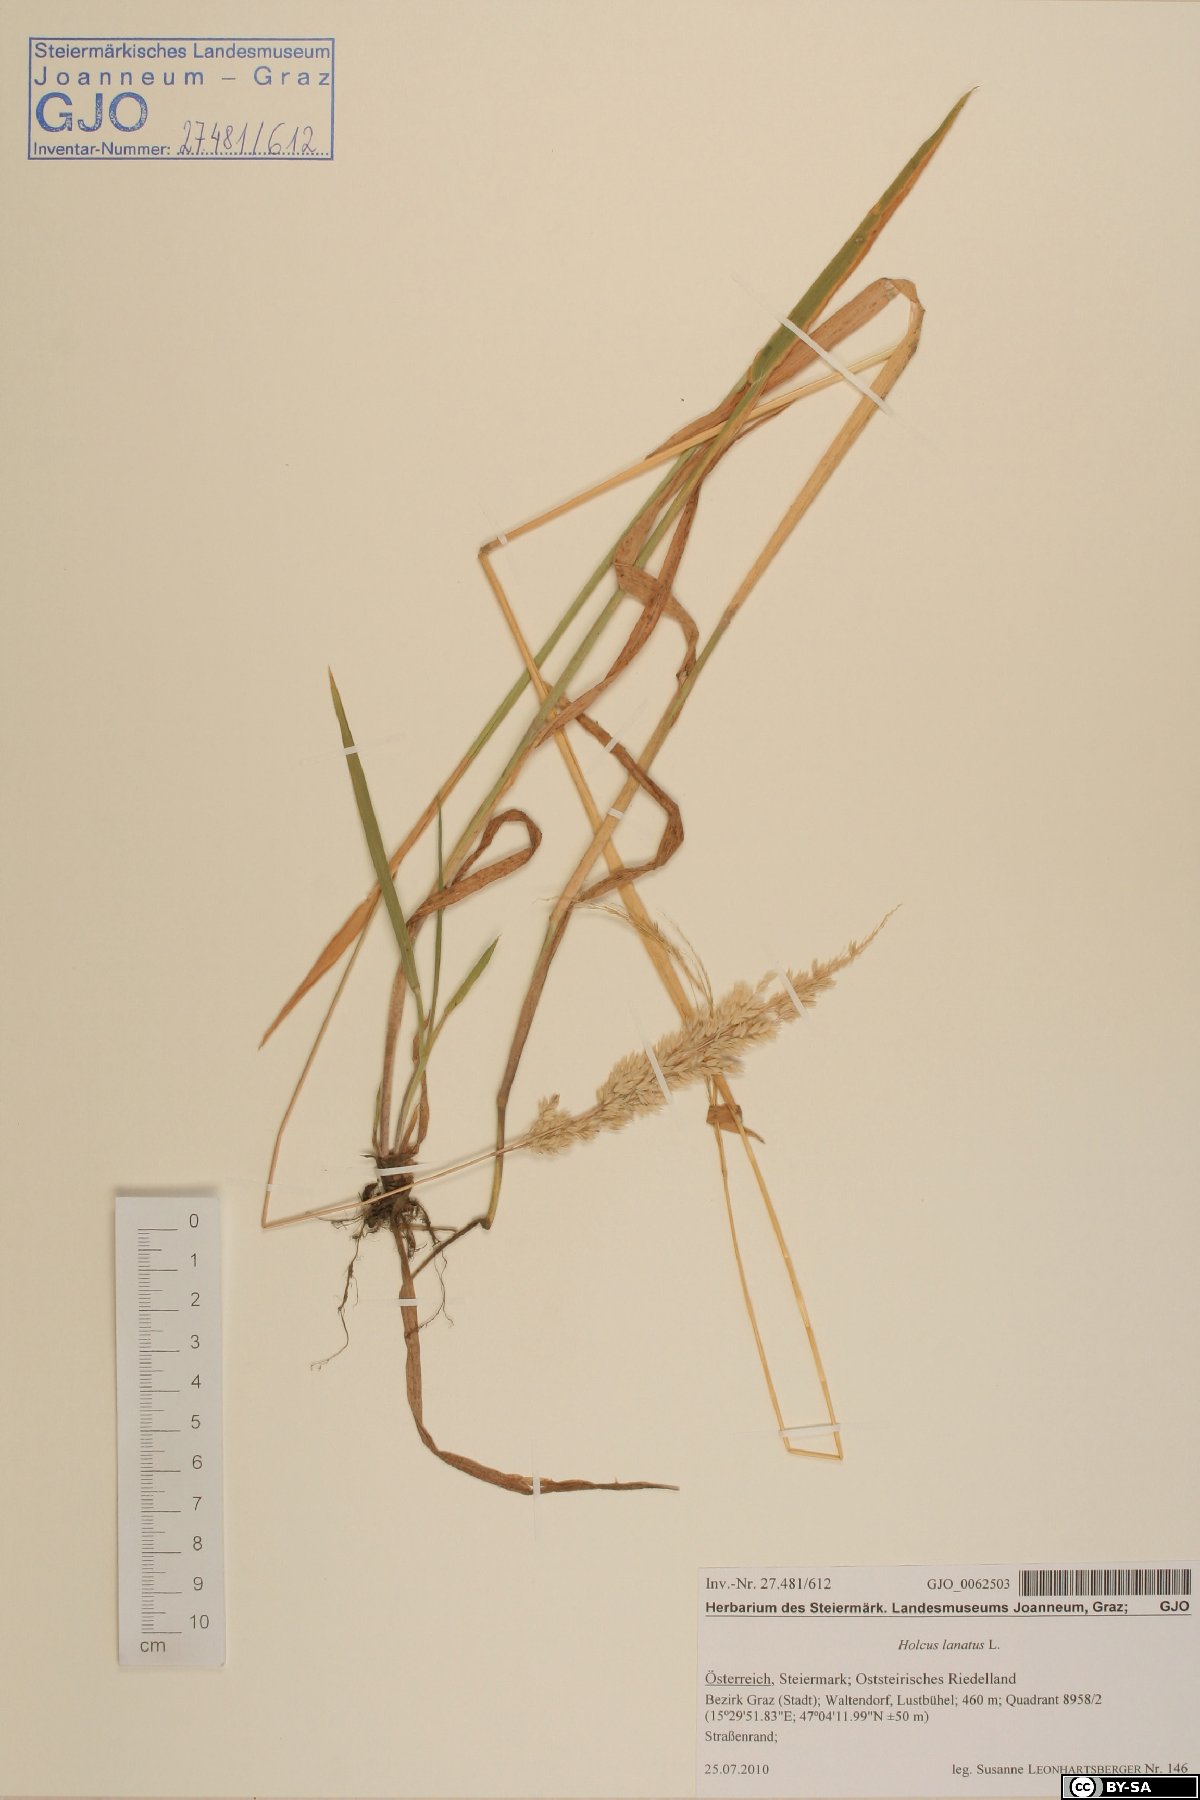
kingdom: Plantae
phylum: Tracheophyta
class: Liliopsida
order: Poales
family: Poaceae
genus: Holcus
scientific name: Holcus lanatus
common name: Yorkshire-fog
